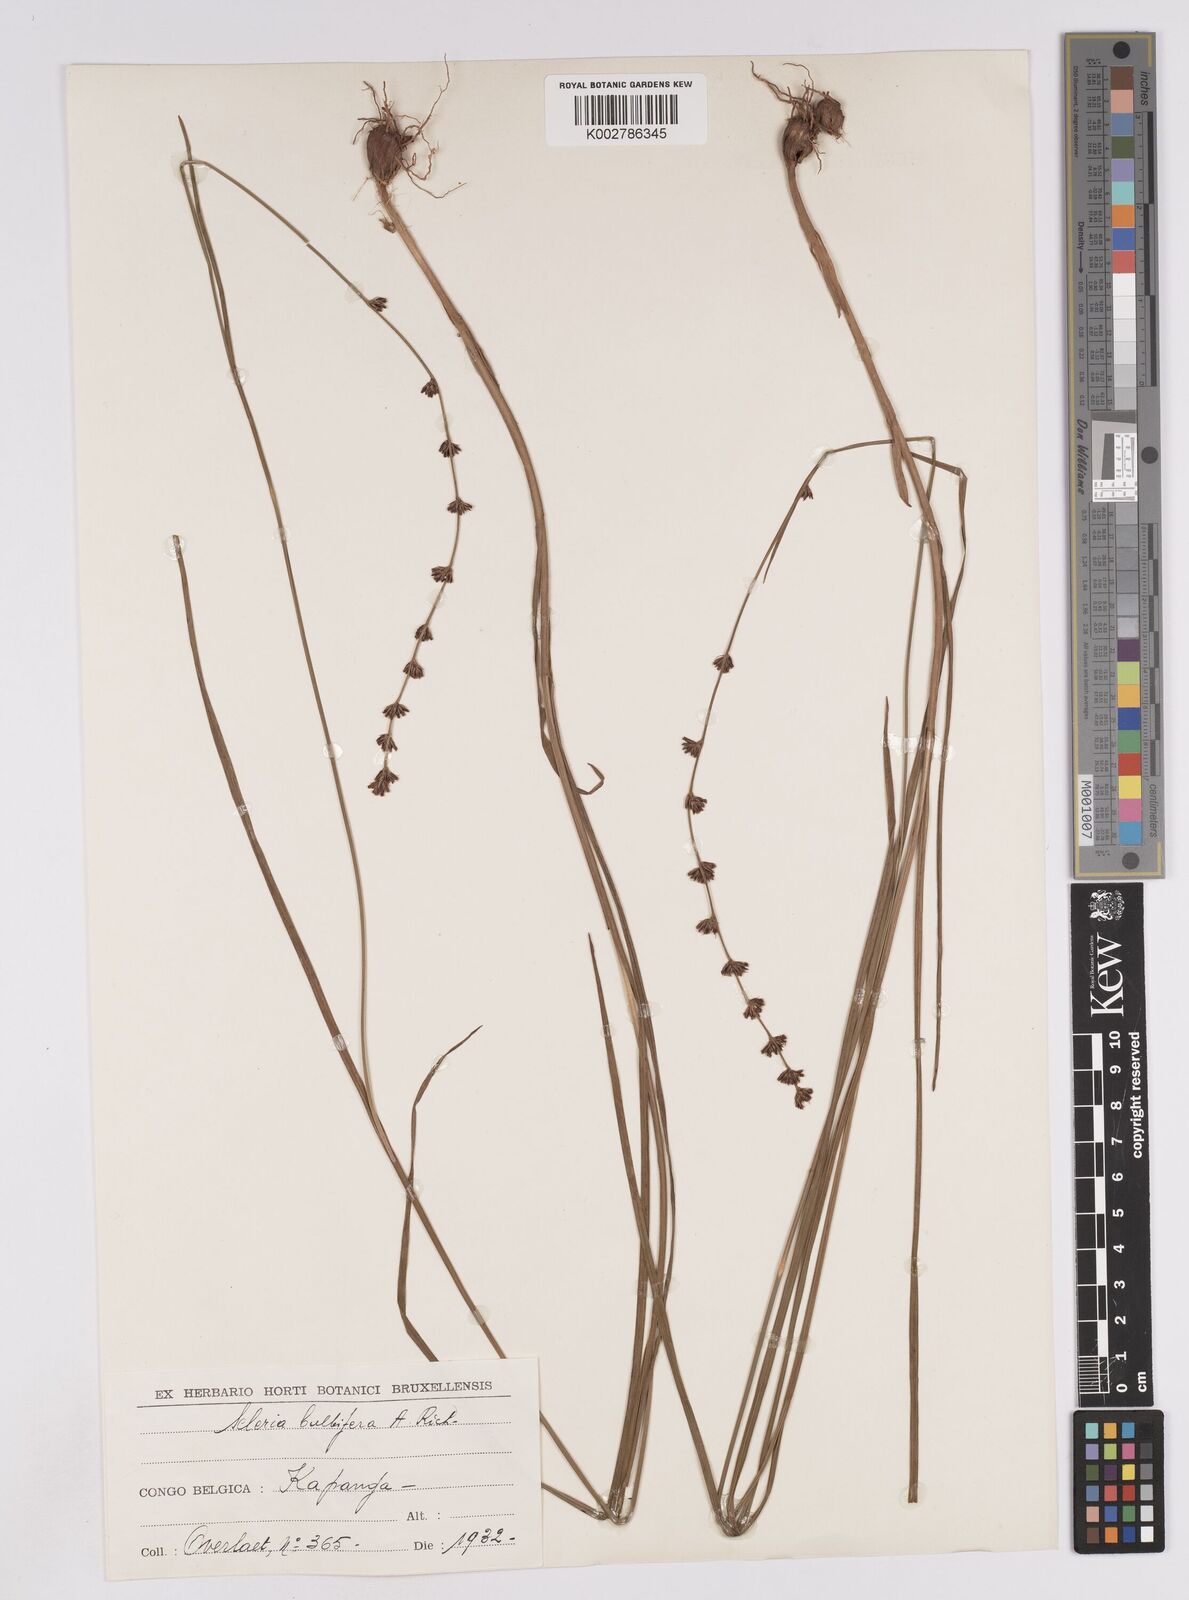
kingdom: Plantae
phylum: Tracheophyta
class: Liliopsida
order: Poales
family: Cyperaceae
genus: Scleria
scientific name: Scleria bulbifera
